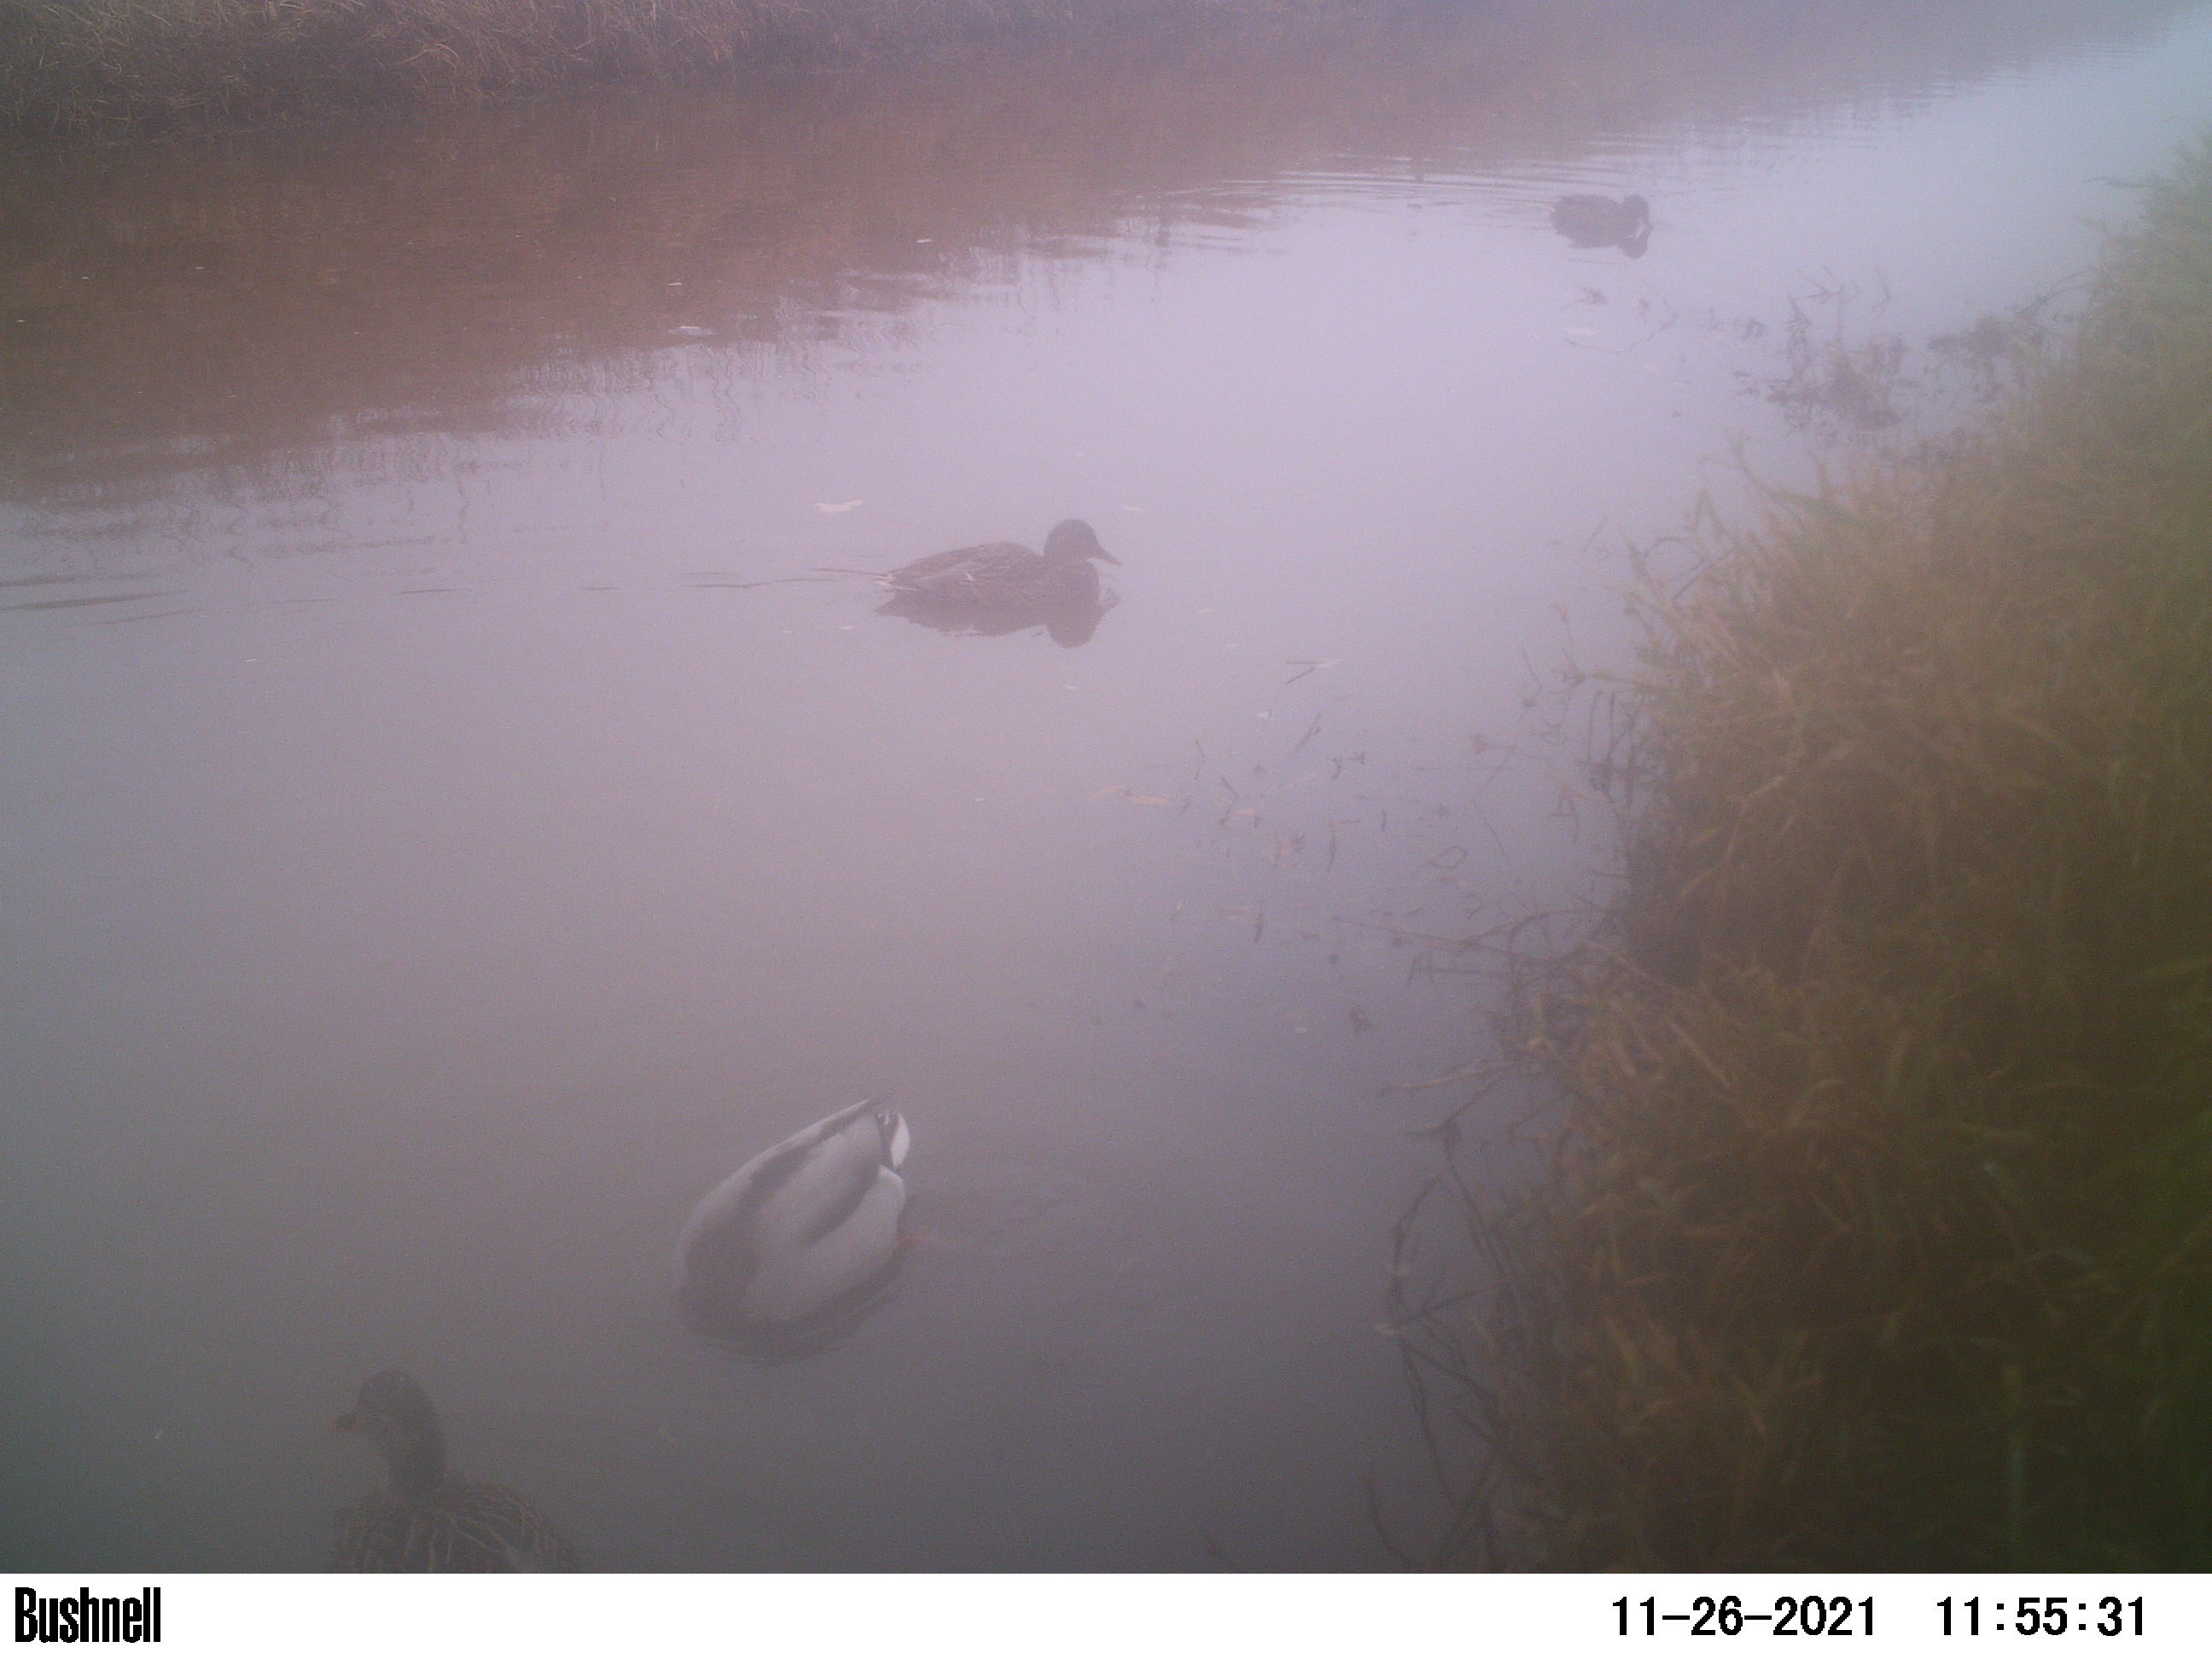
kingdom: Animalia
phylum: Chordata
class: Aves
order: Anseriformes
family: Anatidae
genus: Anas
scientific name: Anas
